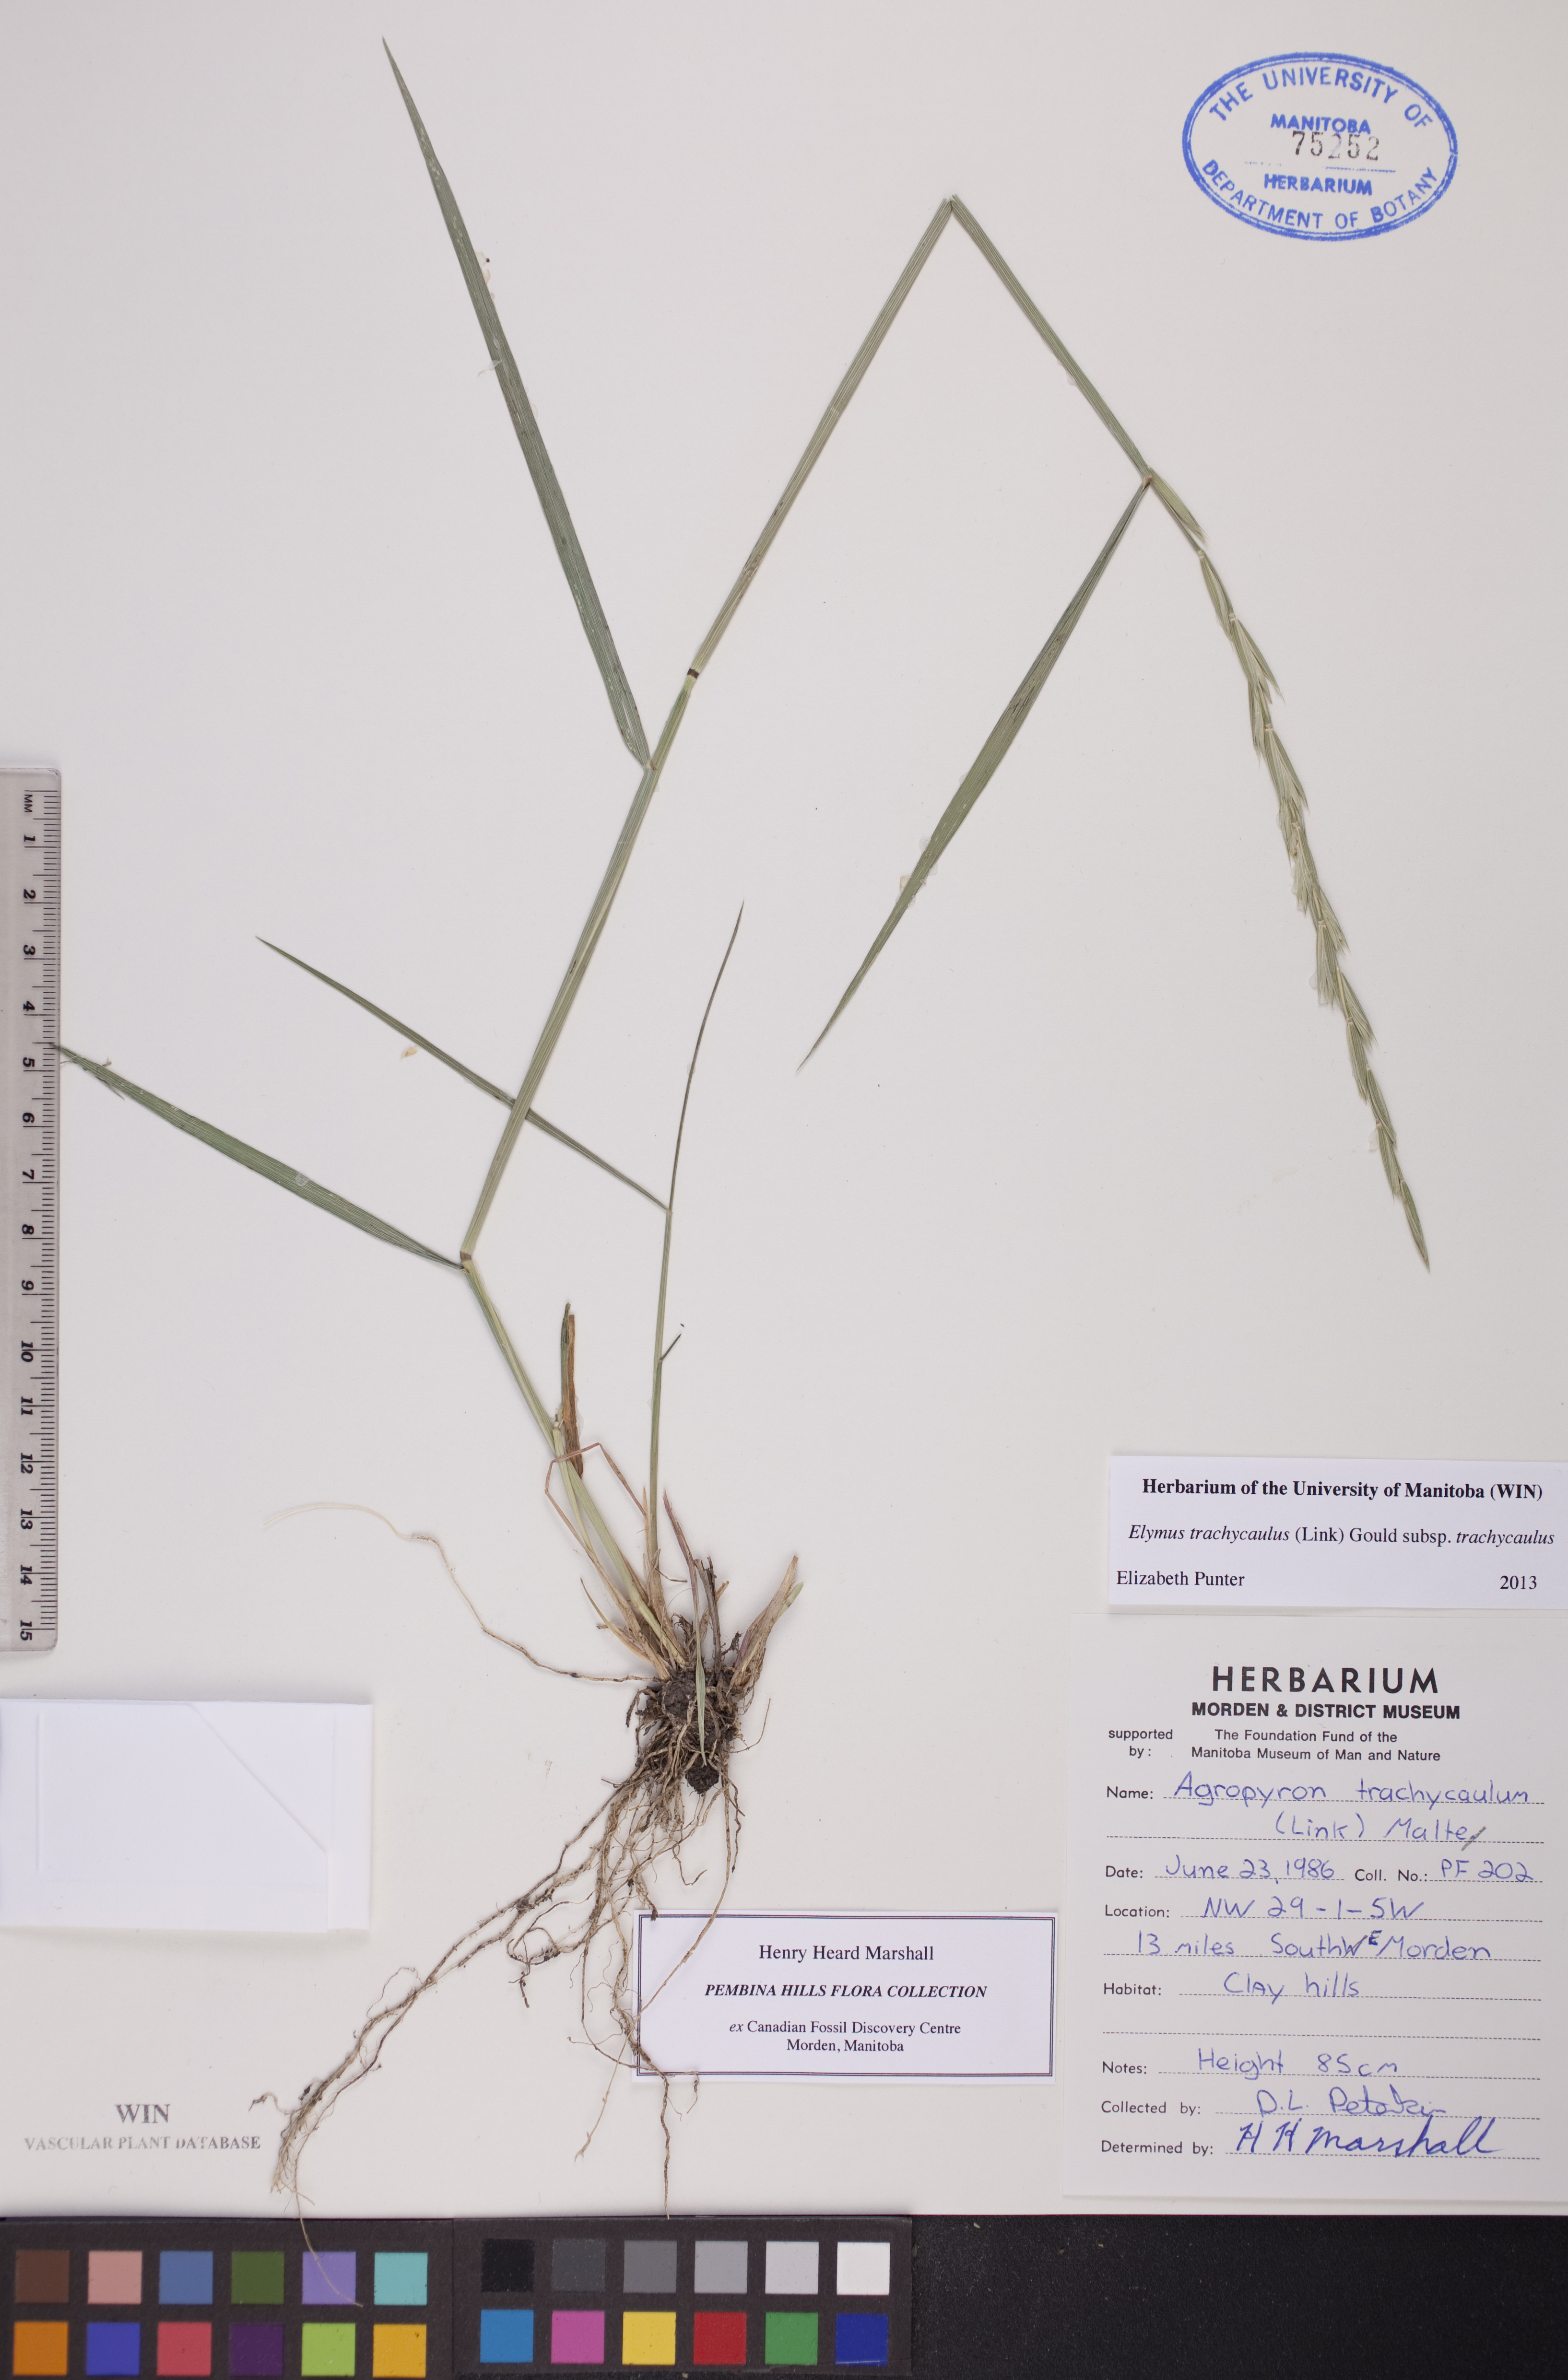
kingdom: Plantae
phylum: Tracheophyta
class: Liliopsida
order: Poales
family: Poaceae
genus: Elymus
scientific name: Elymus violaceus
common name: Arctic wheatgrass
